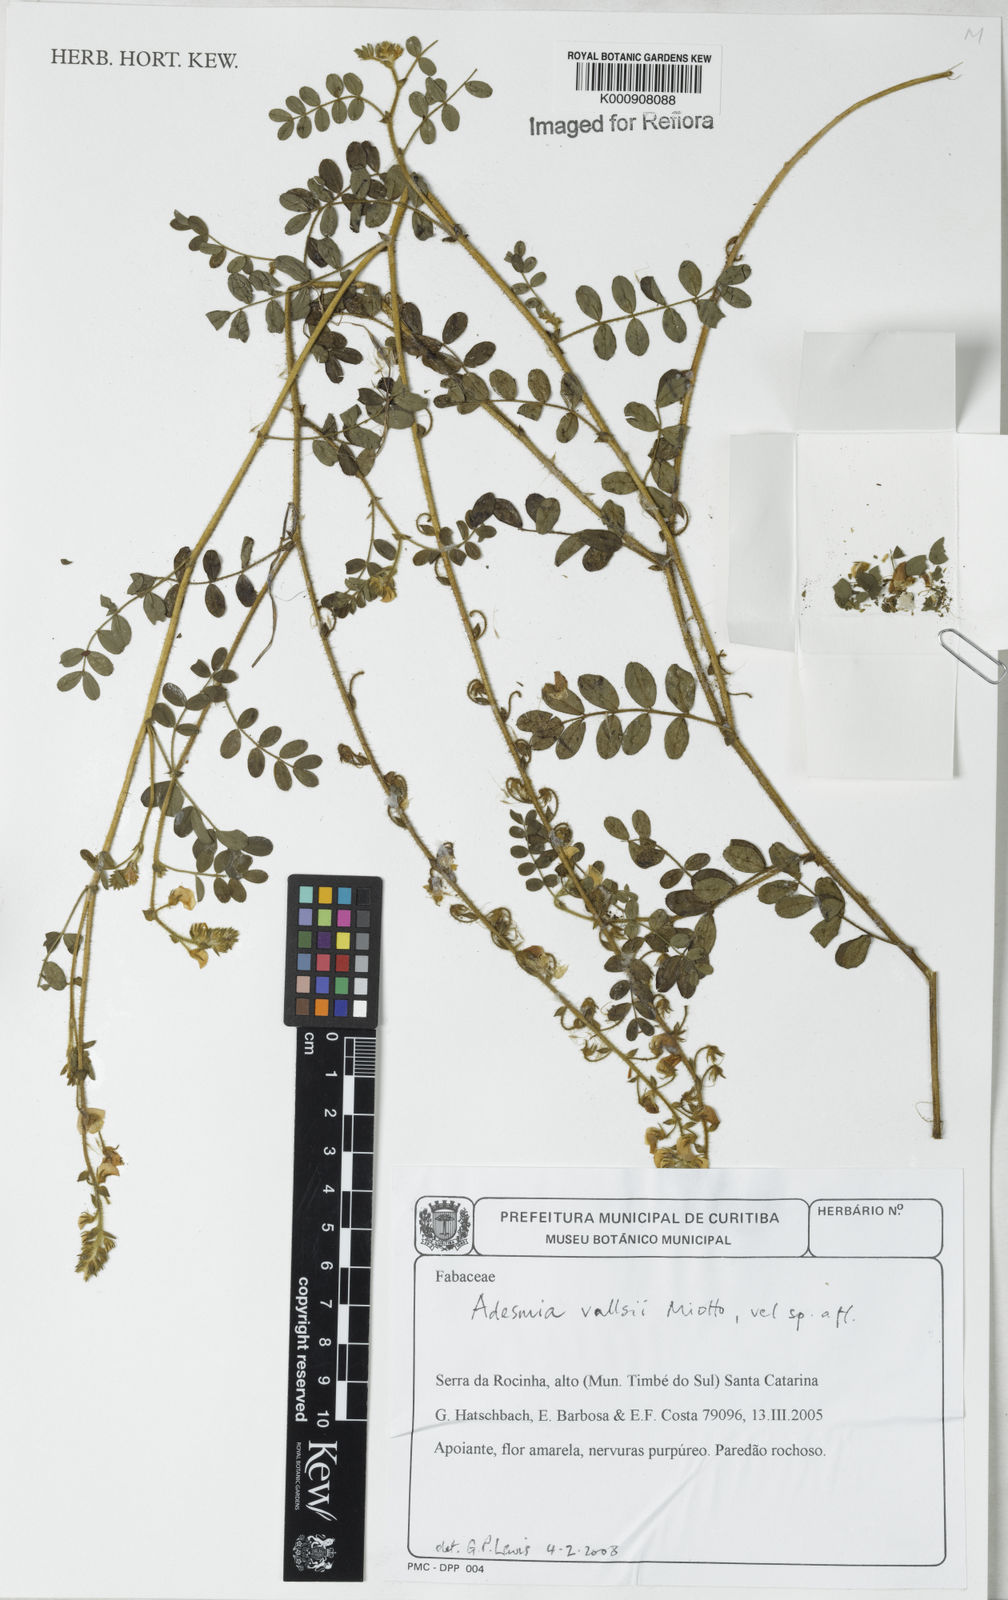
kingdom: Plantae
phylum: Tracheophyta
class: Magnoliopsida
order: Fabales
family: Fabaceae
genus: Adesmia
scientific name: Adesmia vallsii
